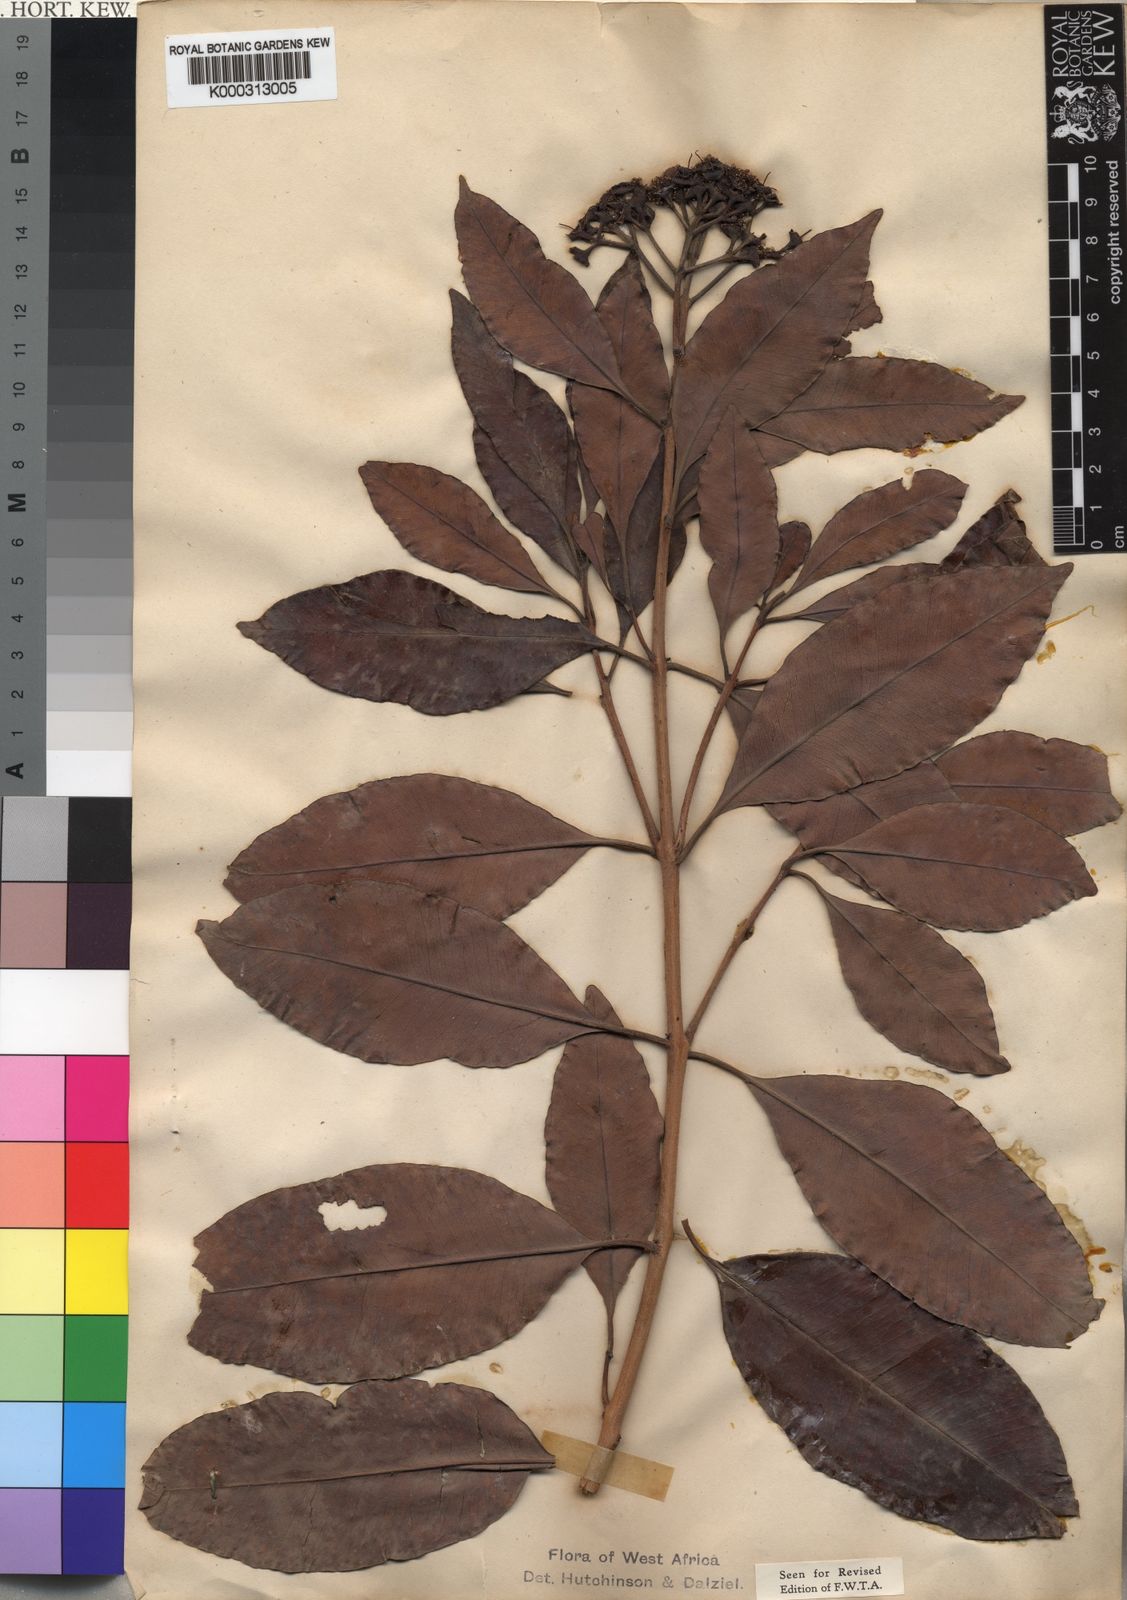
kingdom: Plantae
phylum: Tracheophyta
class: Magnoliopsida
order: Myrtales
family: Myrtaceae
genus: Syzygium
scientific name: Syzygium guineense
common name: Water-pear
